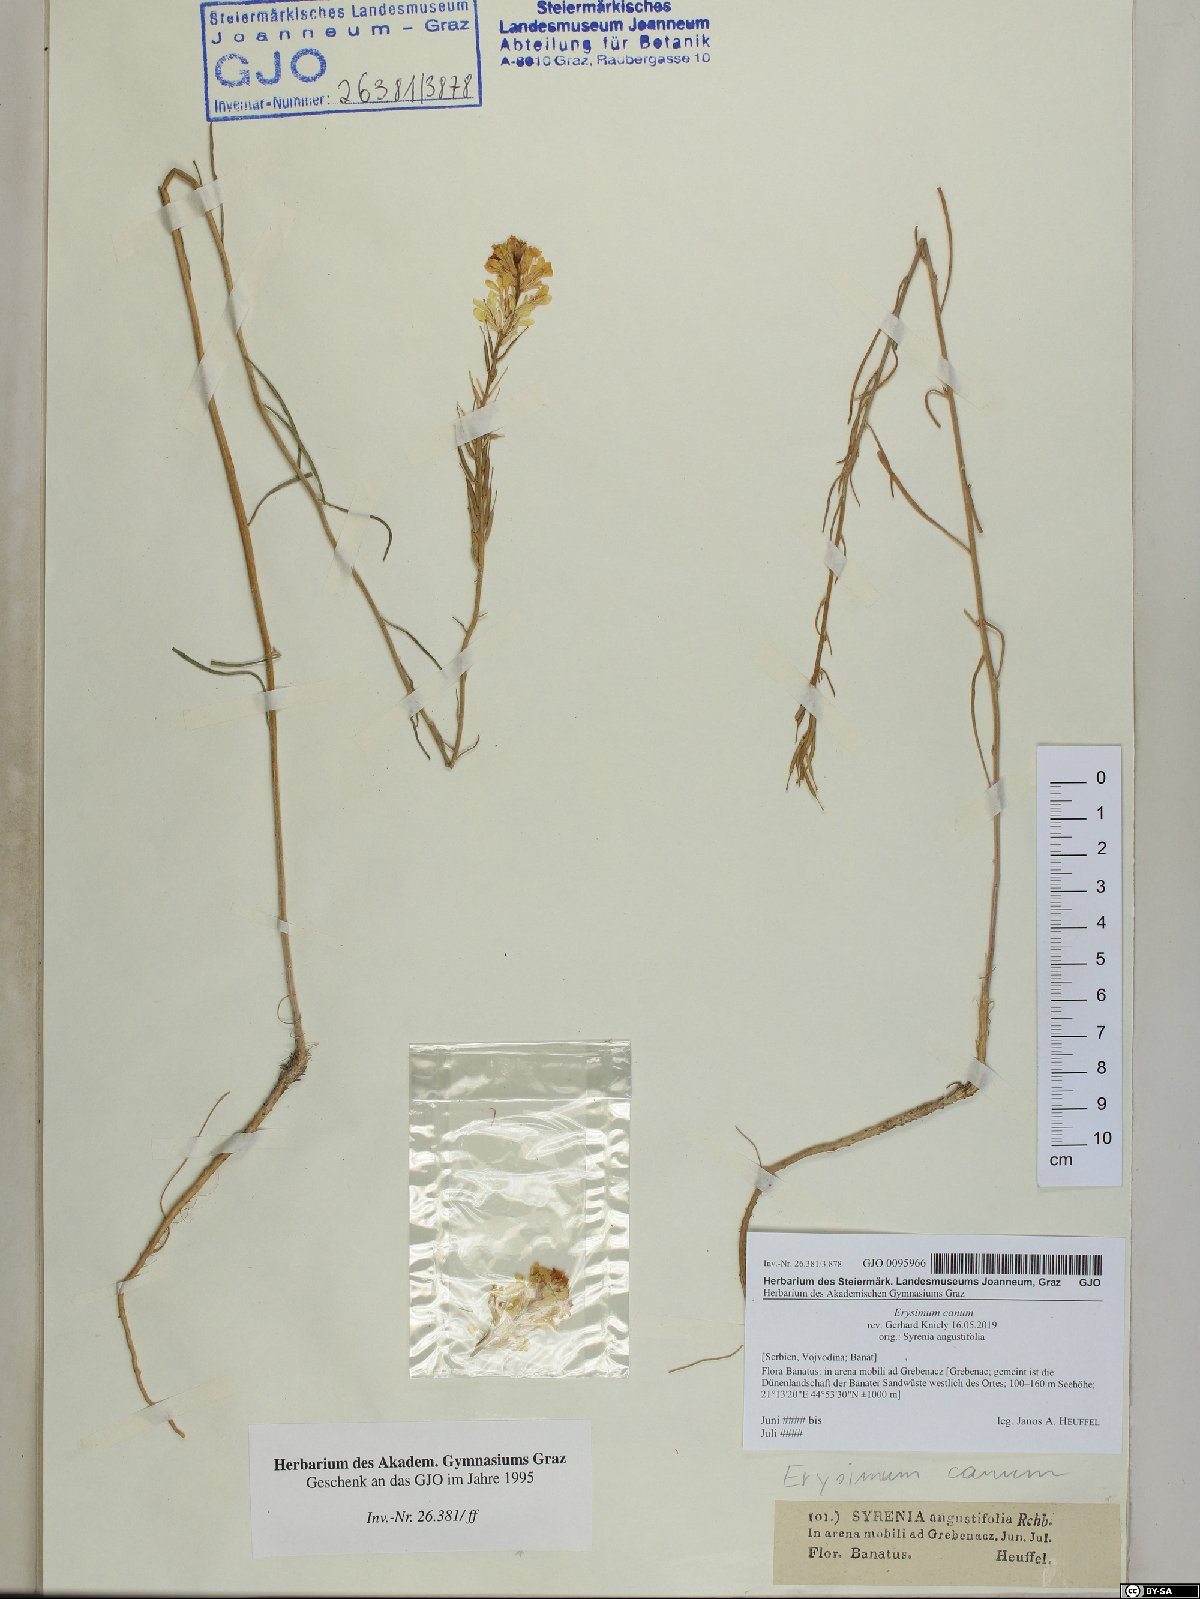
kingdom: Plantae
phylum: Tracheophyta
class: Magnoliopsida
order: Brassicales
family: Brassicaceae
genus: Erysimum
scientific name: Erysimum canum
